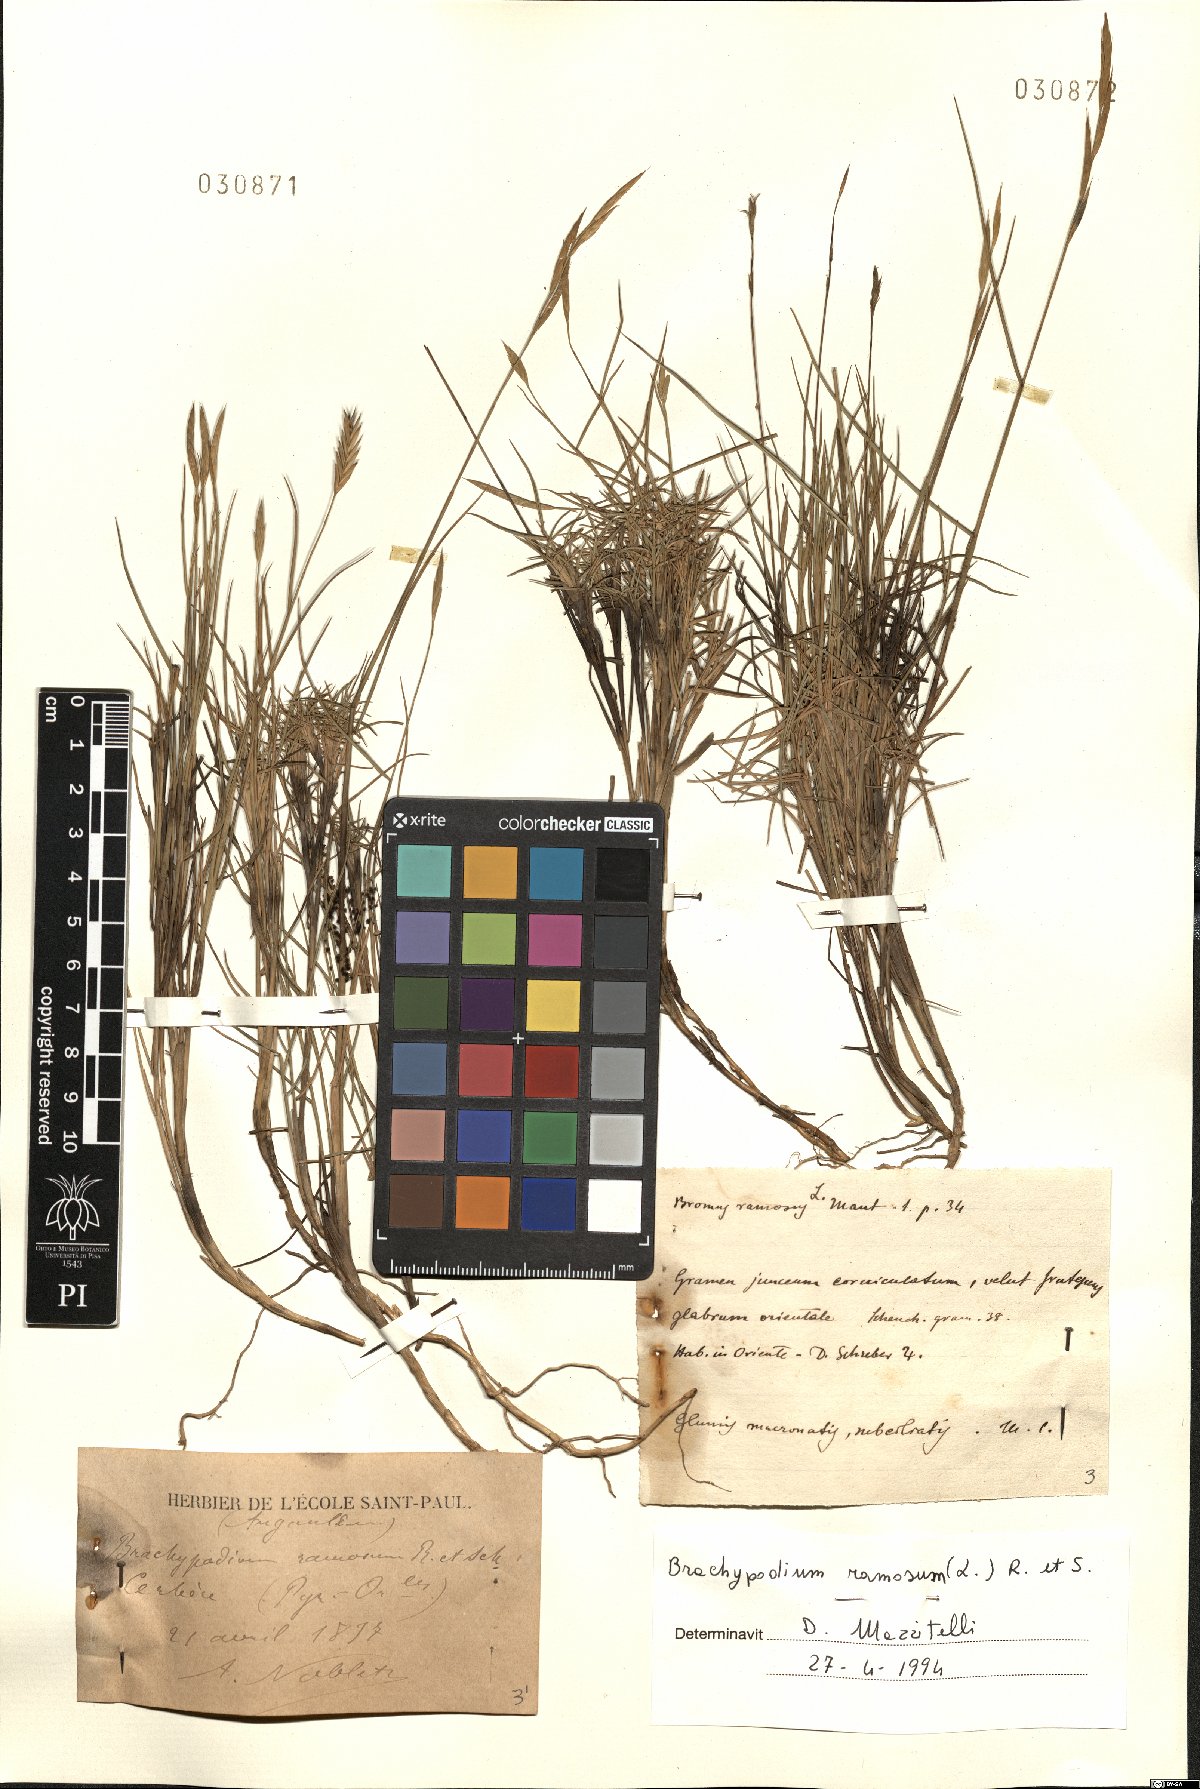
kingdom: Plantae
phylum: Tracheophyta
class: Liliopsida
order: Poales
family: Poaceae
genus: Brachypodium
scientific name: Brachypodium retusum
